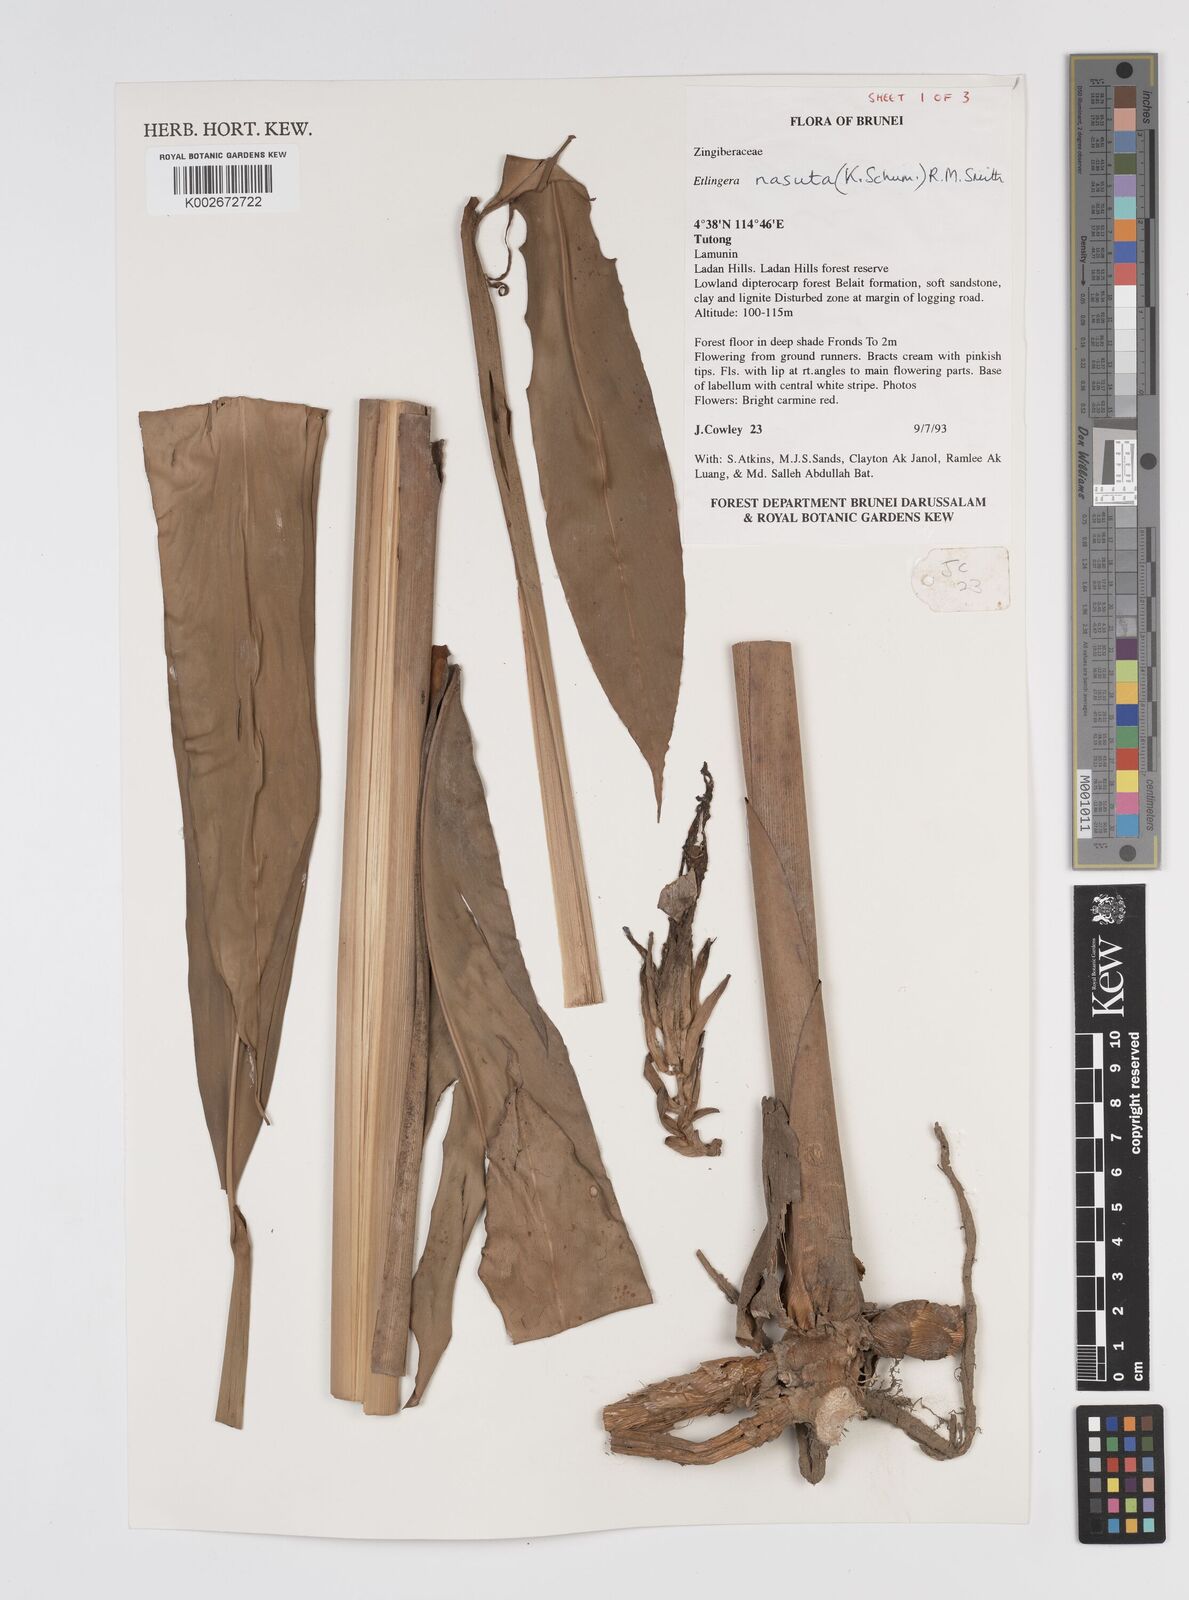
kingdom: Plantae
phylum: Tracheophyta
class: Liliopsida
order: Zingiberales
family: Zingiberaceae
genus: Etlingera
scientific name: Etlingera nasuta
